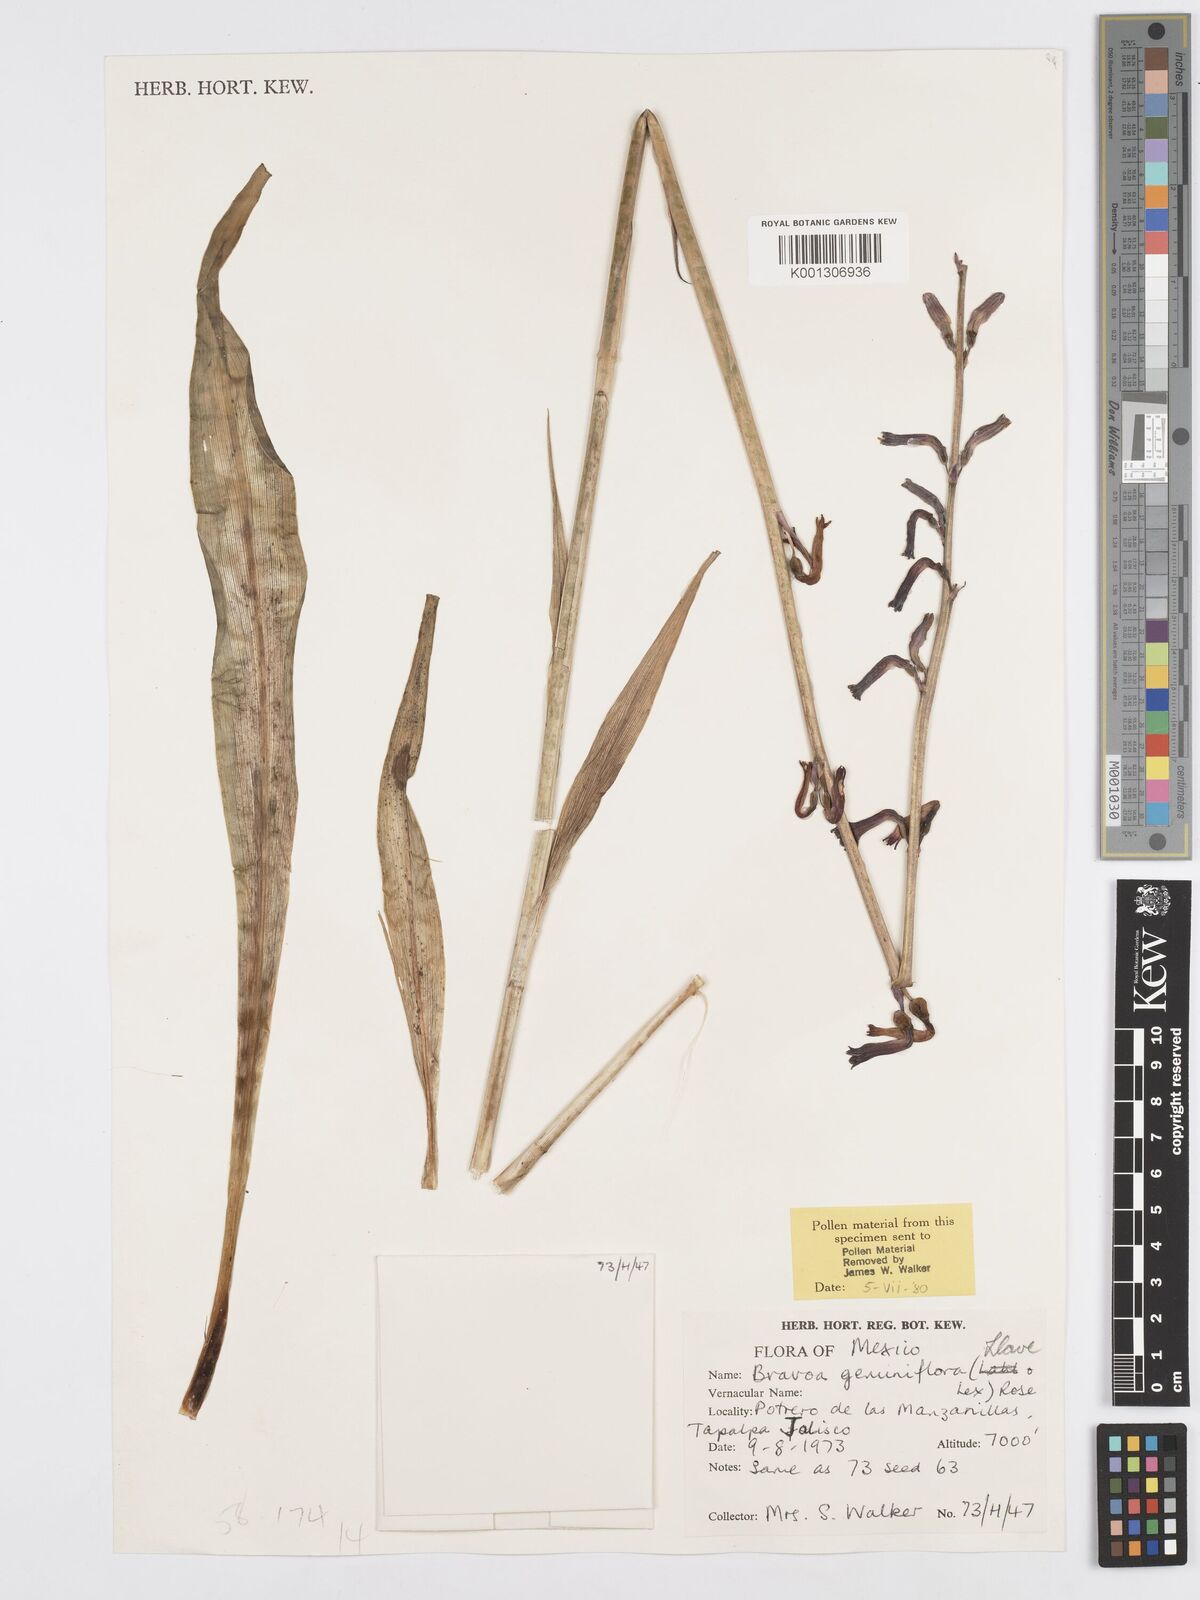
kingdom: Plantae
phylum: Tracheophyta
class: Liliopsida
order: Asparagales
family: Asparagaceae
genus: Agave
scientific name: Agave coetocapnia
